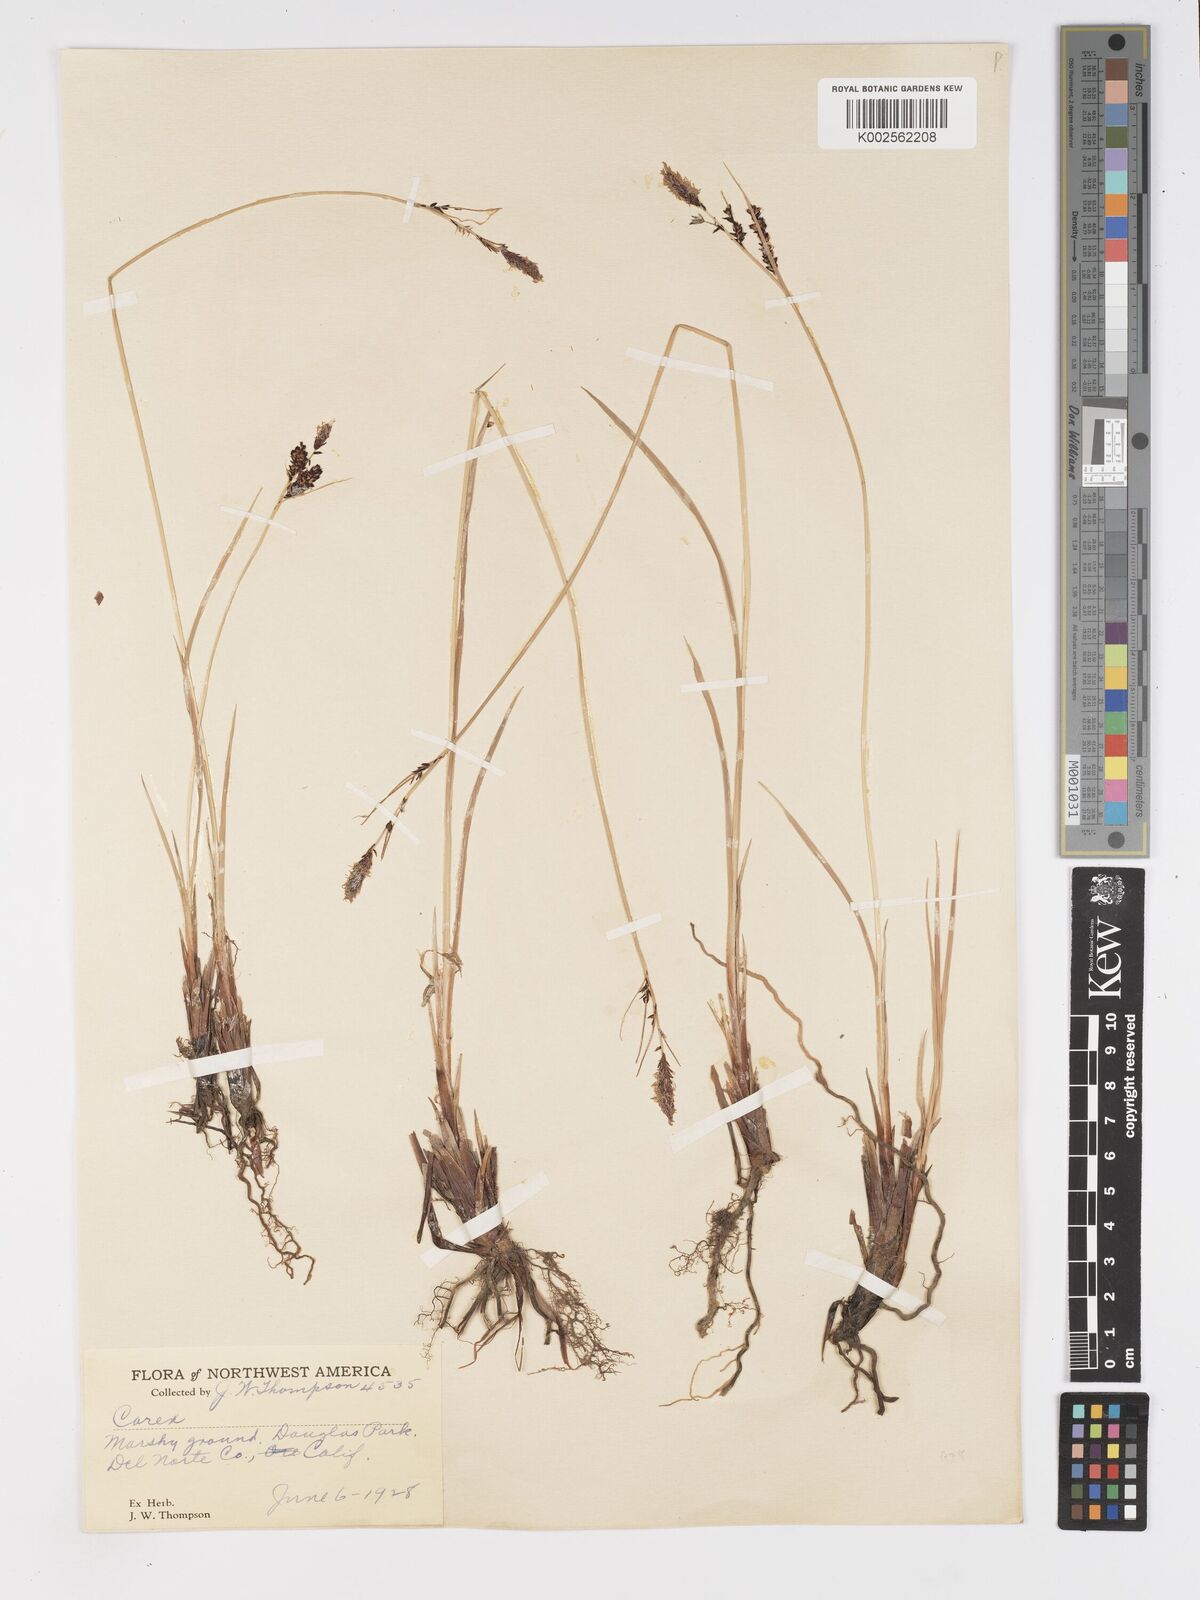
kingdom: Plantae
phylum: Tracheophyta
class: Liliopsida
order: Poales
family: Cyperaceae
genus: Carex
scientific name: Carex nigra
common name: Common sedge
